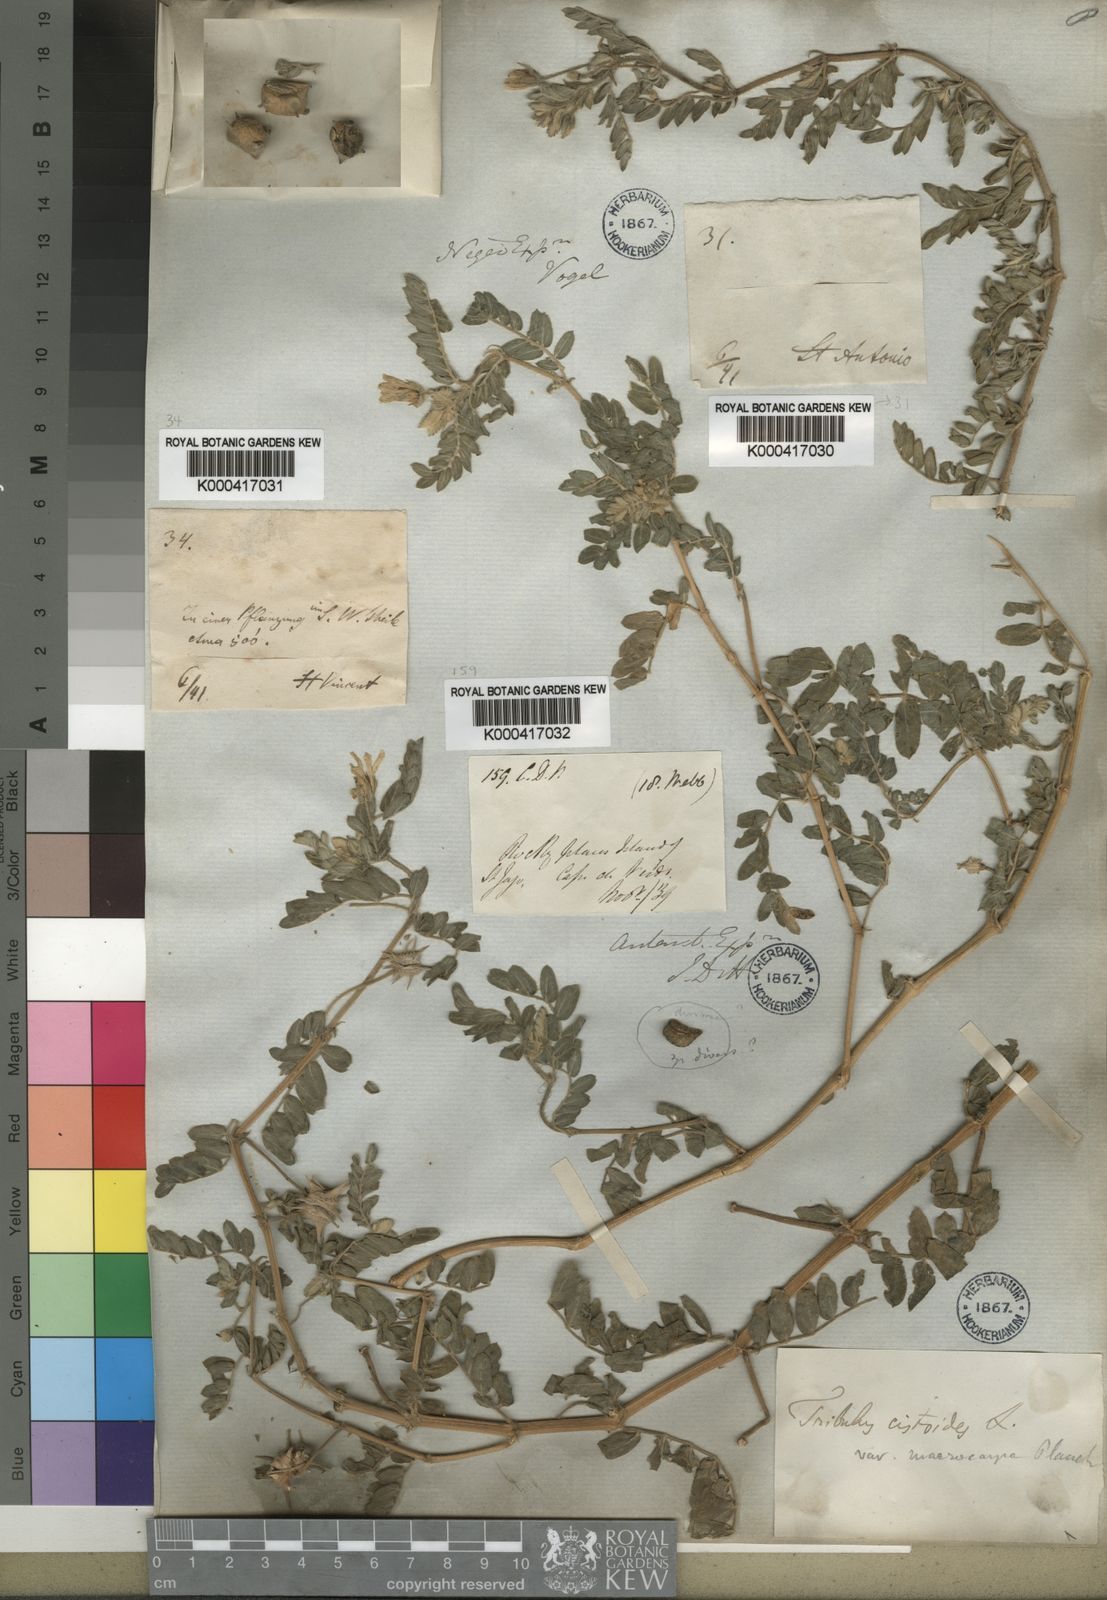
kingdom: Plantae
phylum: Tracheophyta
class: Magnoliopsida
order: Zygophyllales
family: Zygophyllaceae
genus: Tribulus
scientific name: Tribulus cistoides
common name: Jamaican feverplant
